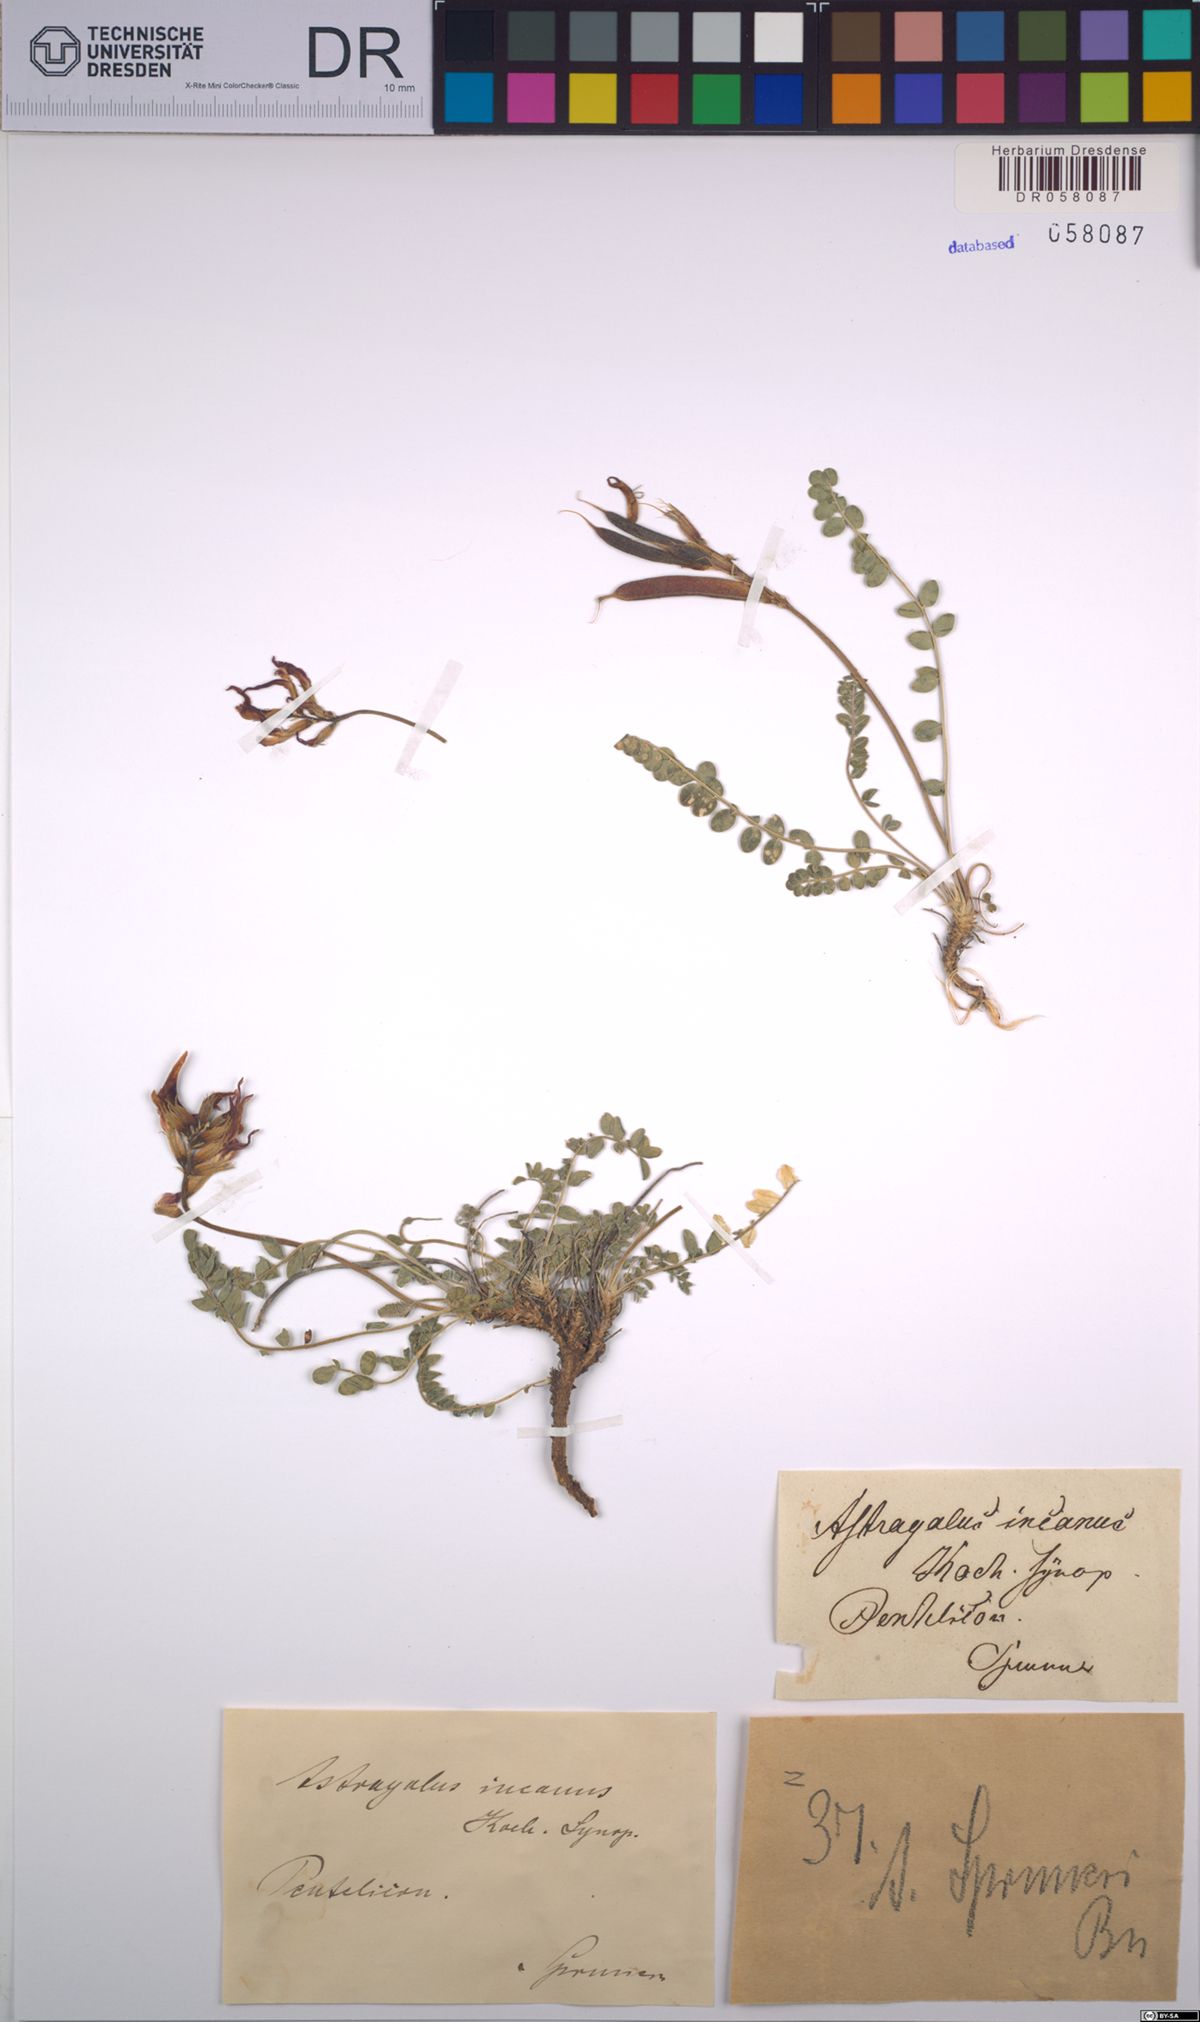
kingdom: Plantae
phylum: Tracheophyta
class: Magnoliopsida
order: Fabales
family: Fabaceae
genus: Astragalus
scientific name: Astragalus incanus
